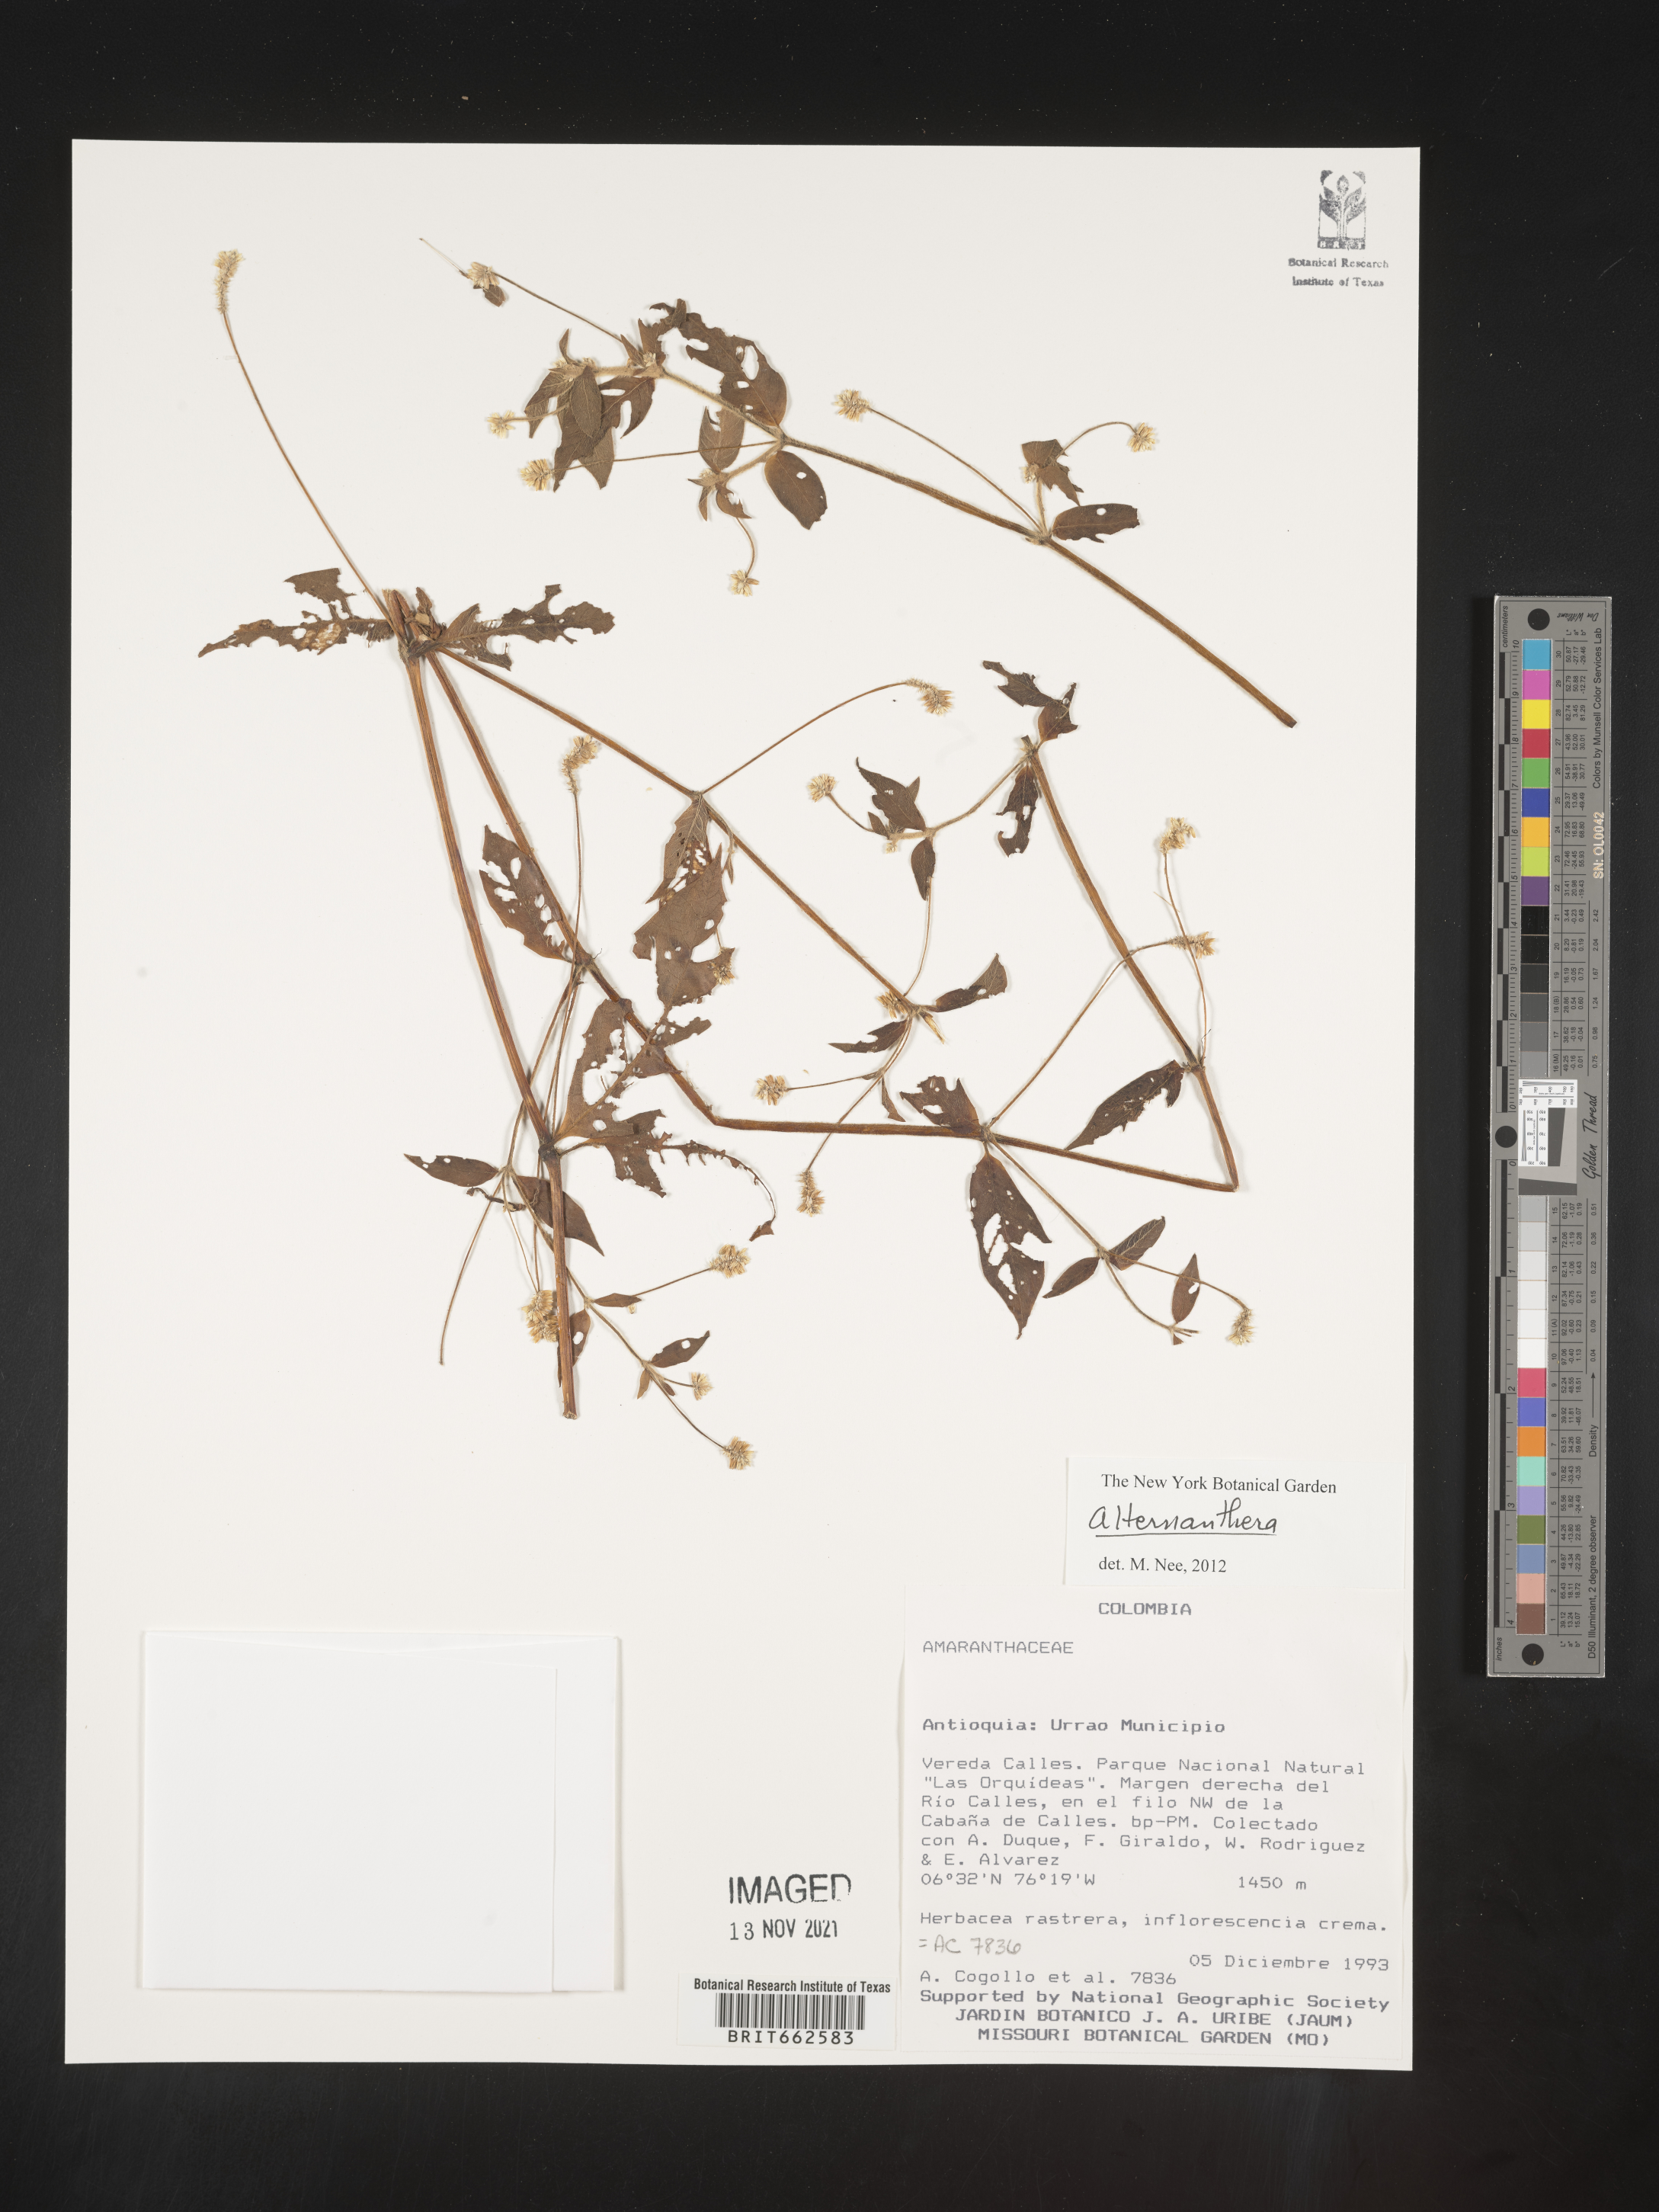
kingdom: Plantae
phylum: Tracheophyta
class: Magnoliopsida
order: Caryophyllales
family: Amaranthaceae
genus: Alternanthera
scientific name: Alternanthera
